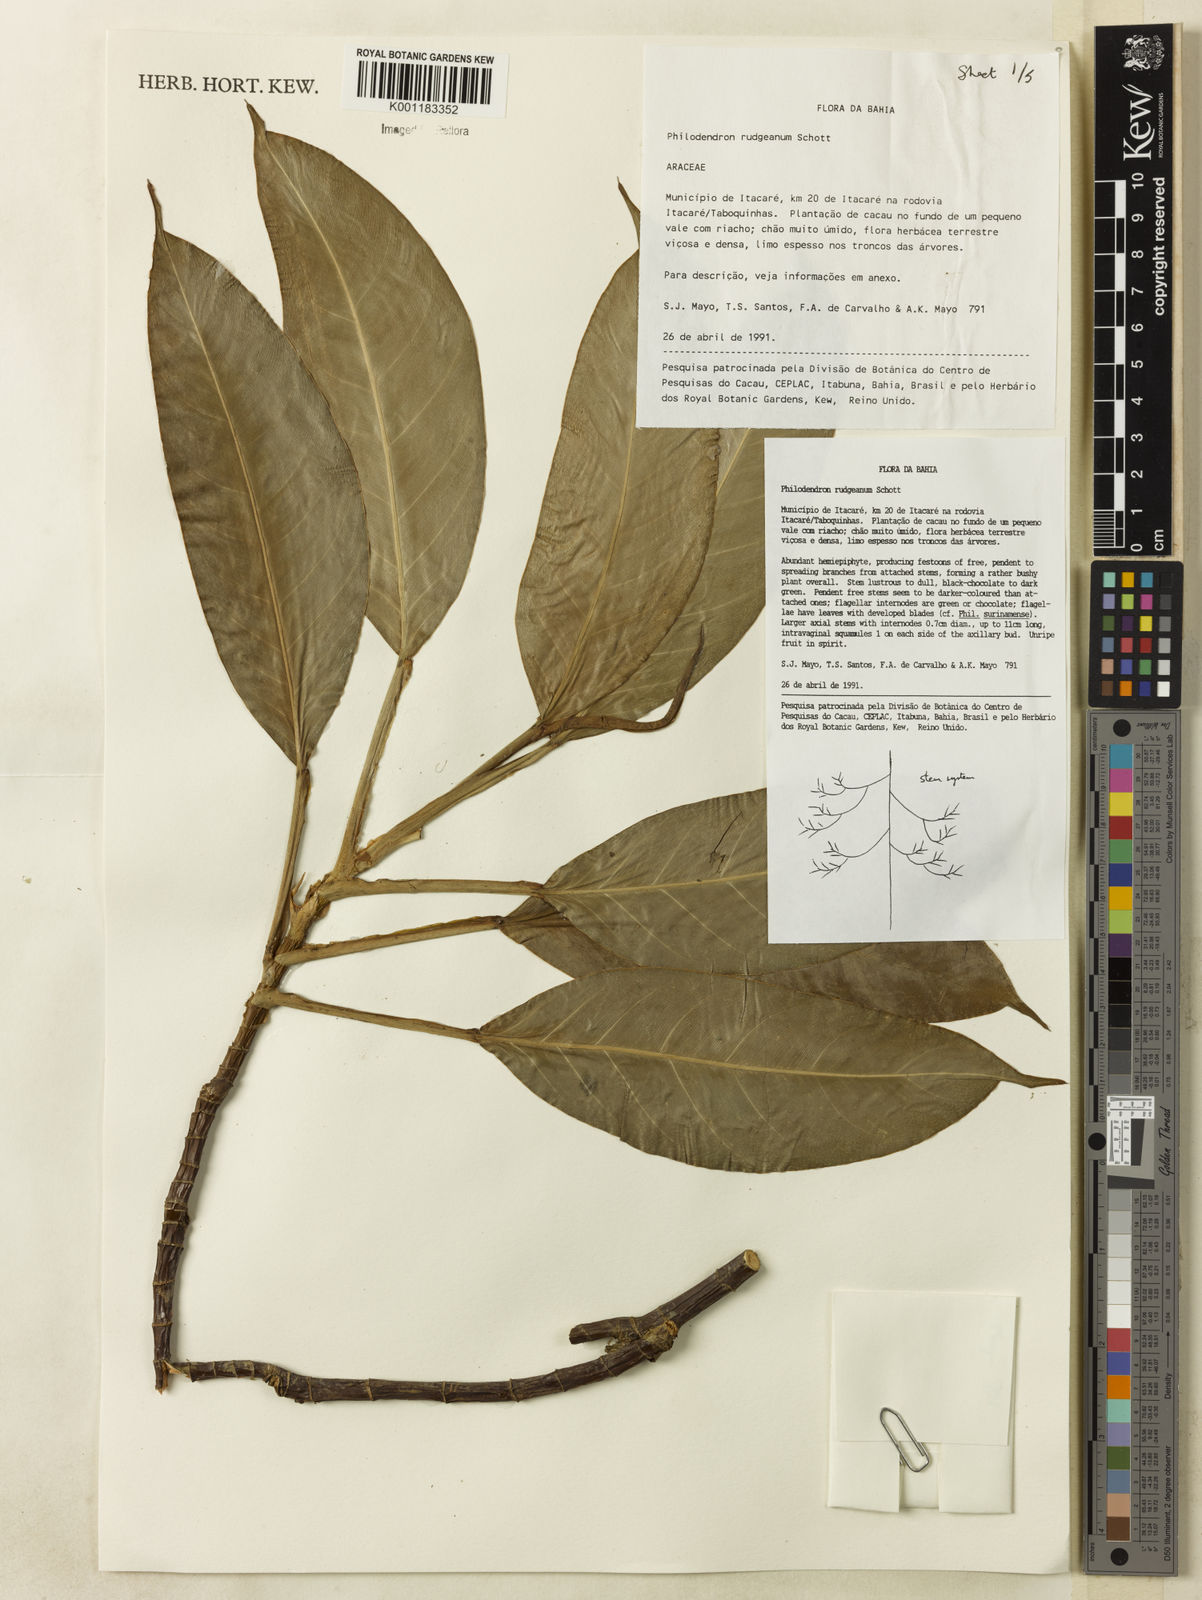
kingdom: Plantae
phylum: Tracheophyta
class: Liliopsida
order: Alismatales
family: Araceae
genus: Philodendron
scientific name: Philodendron rudgeanum
